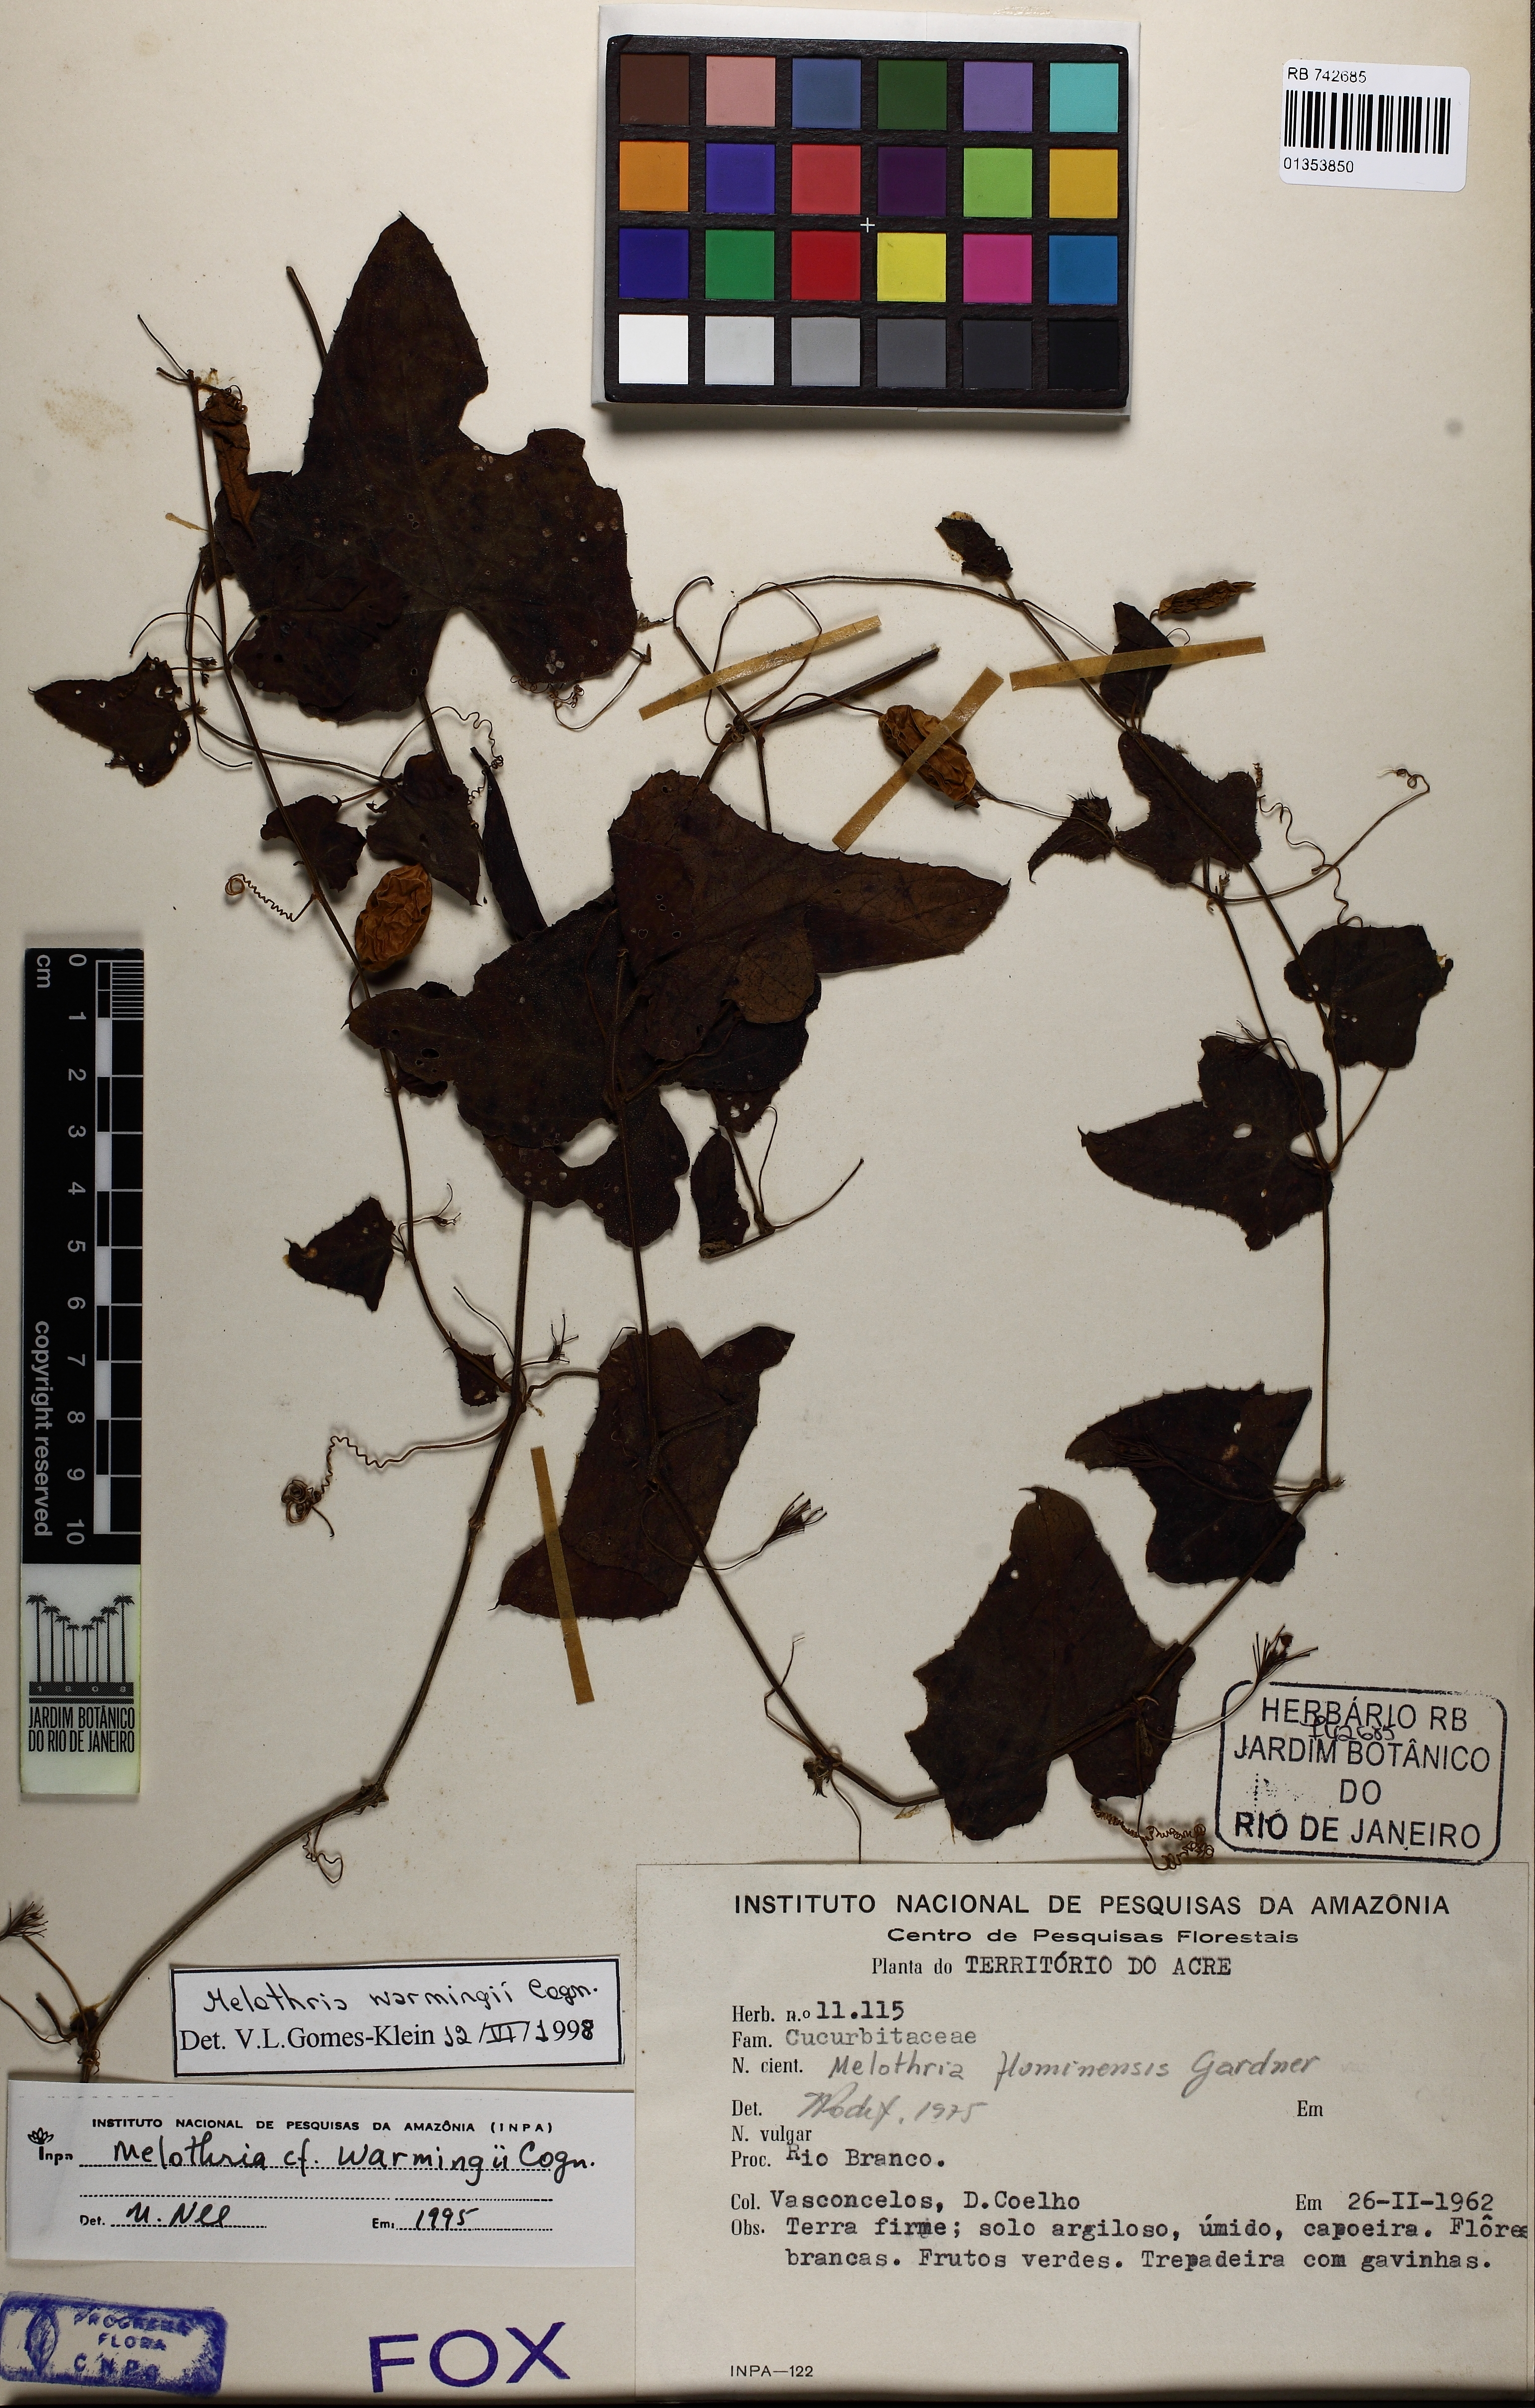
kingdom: Plantae
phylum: Tracheophyta
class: Magnoliopsida
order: Cucurbitales
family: Cucurbitaceae
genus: Melothria
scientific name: Melothria warmingii
